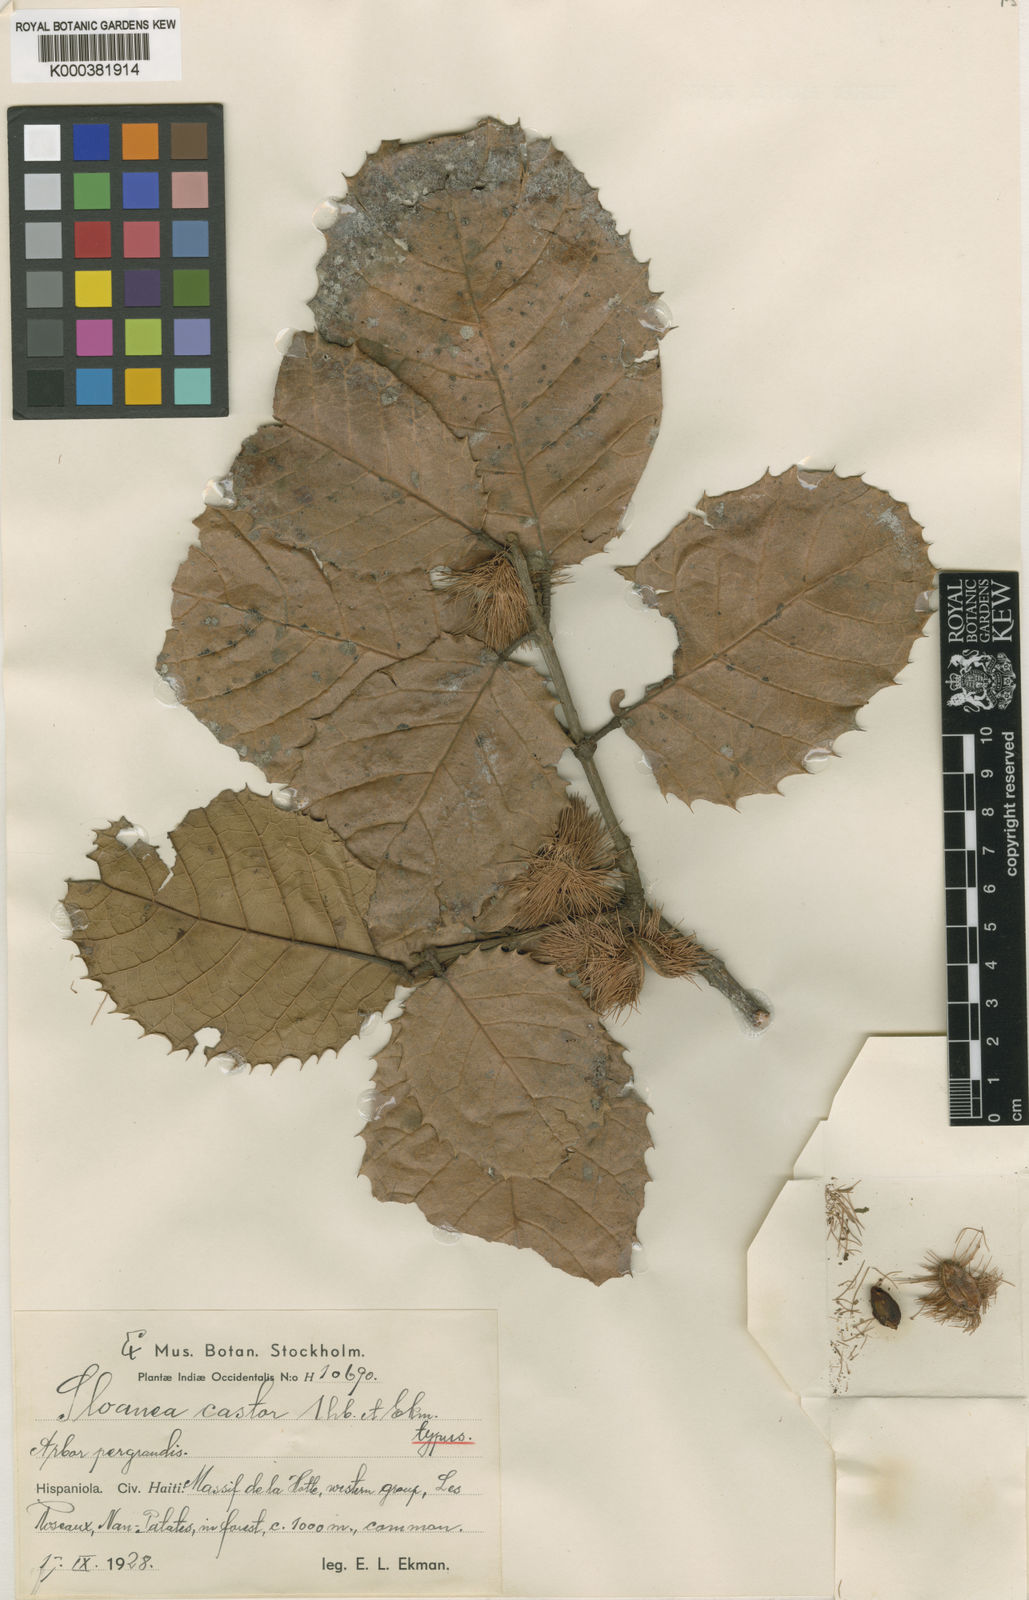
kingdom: Plantae
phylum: Tracheophyta
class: Magnoliopsida
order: Oxalidales
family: Elaeocarpaceae
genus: Sloanea
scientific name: Sloanea ilicifolia
